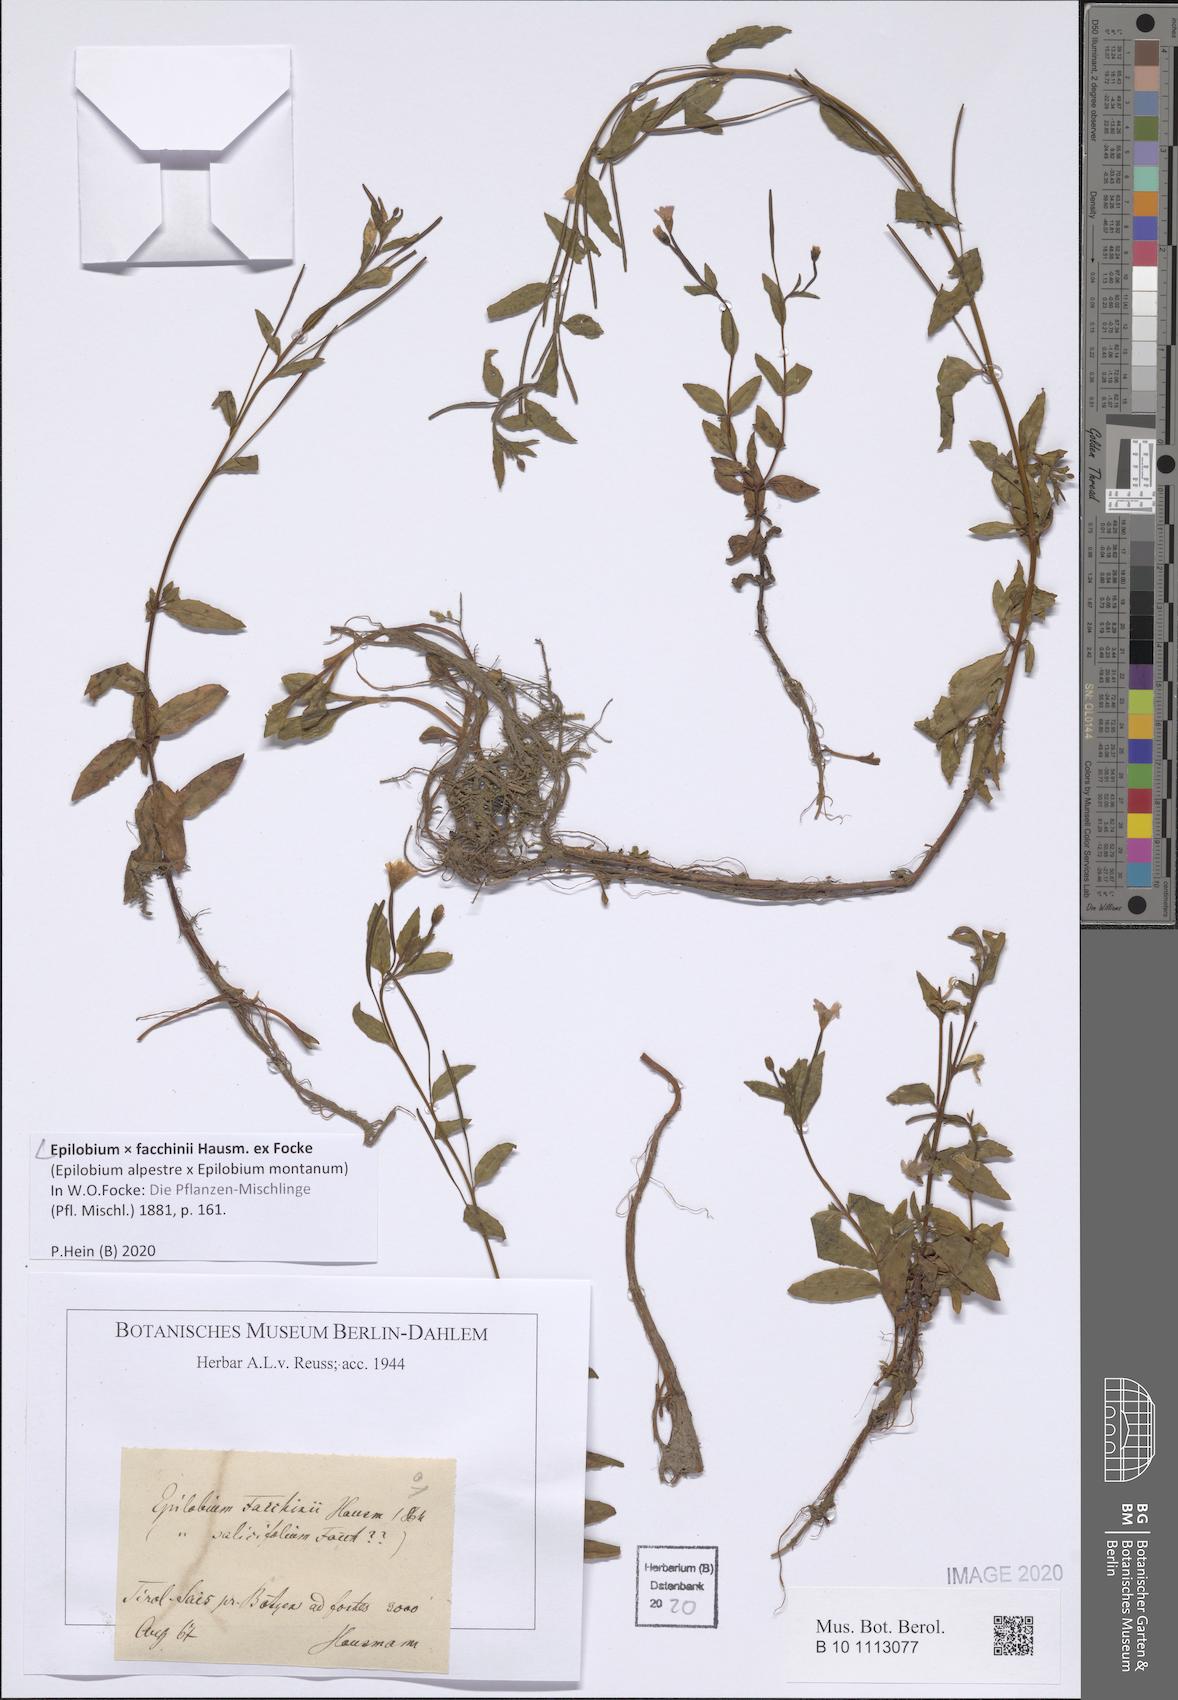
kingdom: Plantae
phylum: Tracheophyta
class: Magnoliopsida
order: Myrtales
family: Onagraceae
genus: Epilobium
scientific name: Epilobium facchini
